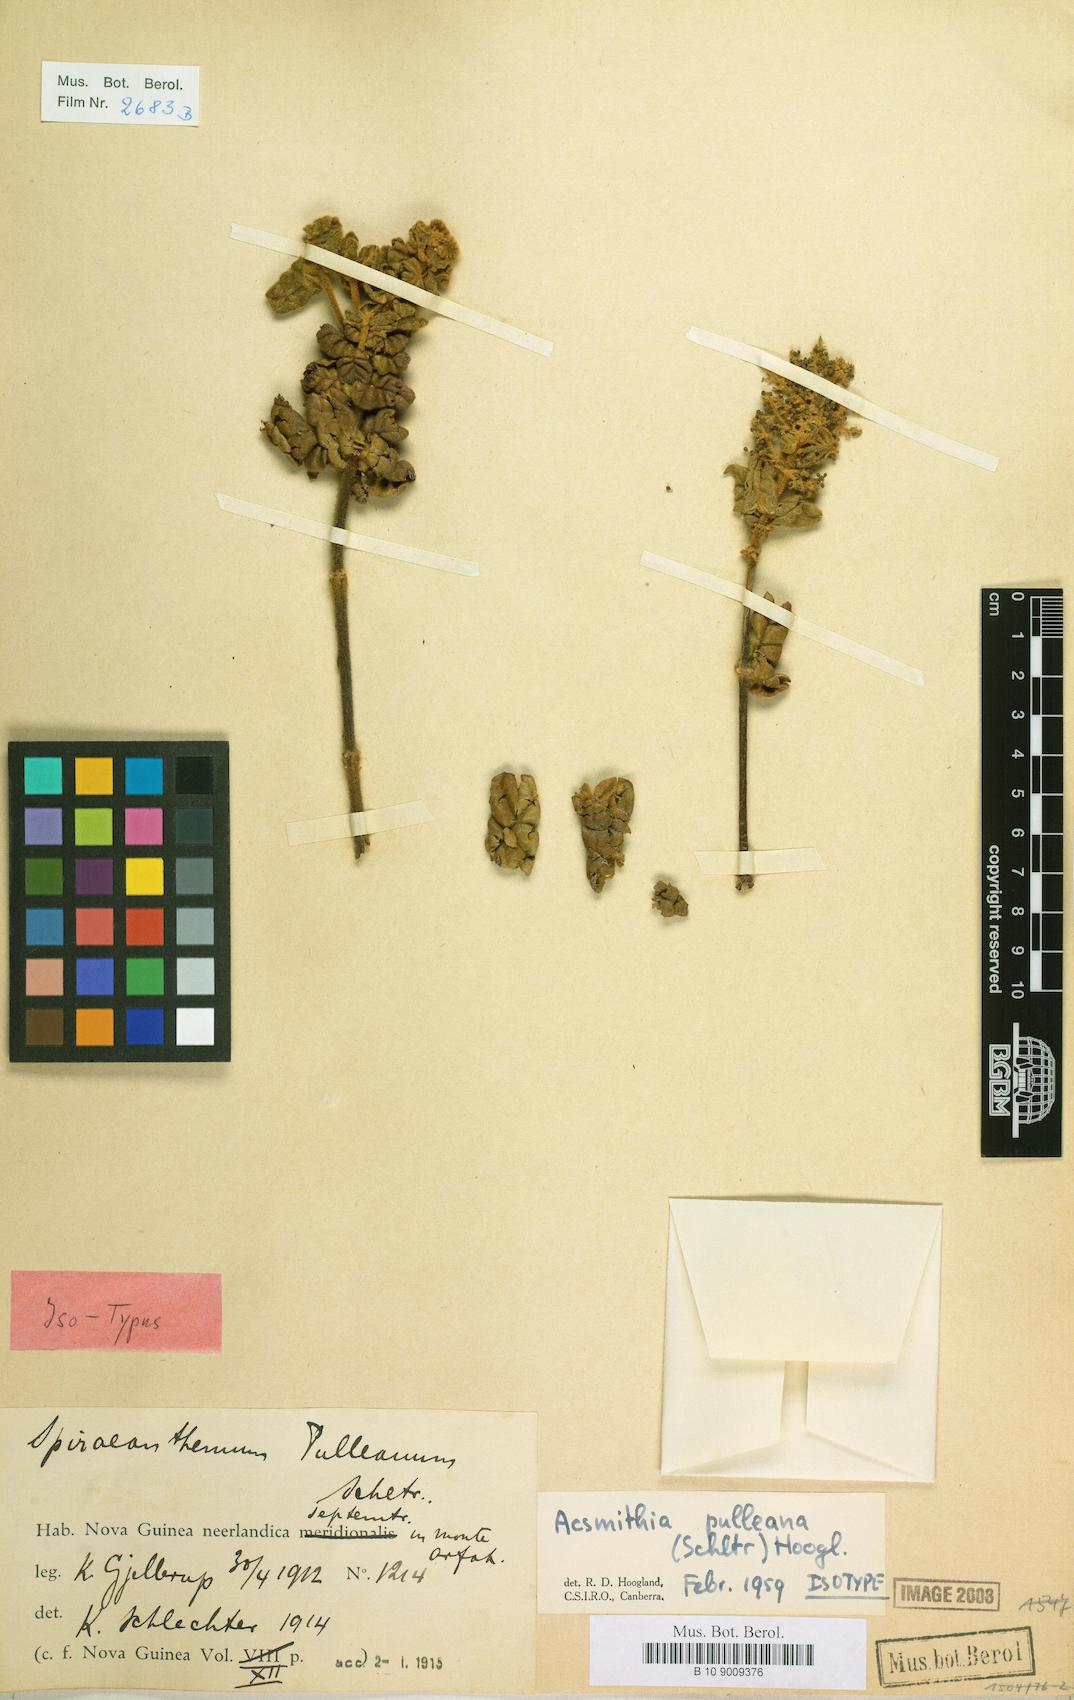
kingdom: Plantae
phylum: Tracheophyta
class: Magnoliopsida
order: Oxalidales
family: Cunoniaceae
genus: Spiraeanthemum
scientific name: Spiraeanthemum pulleanum
